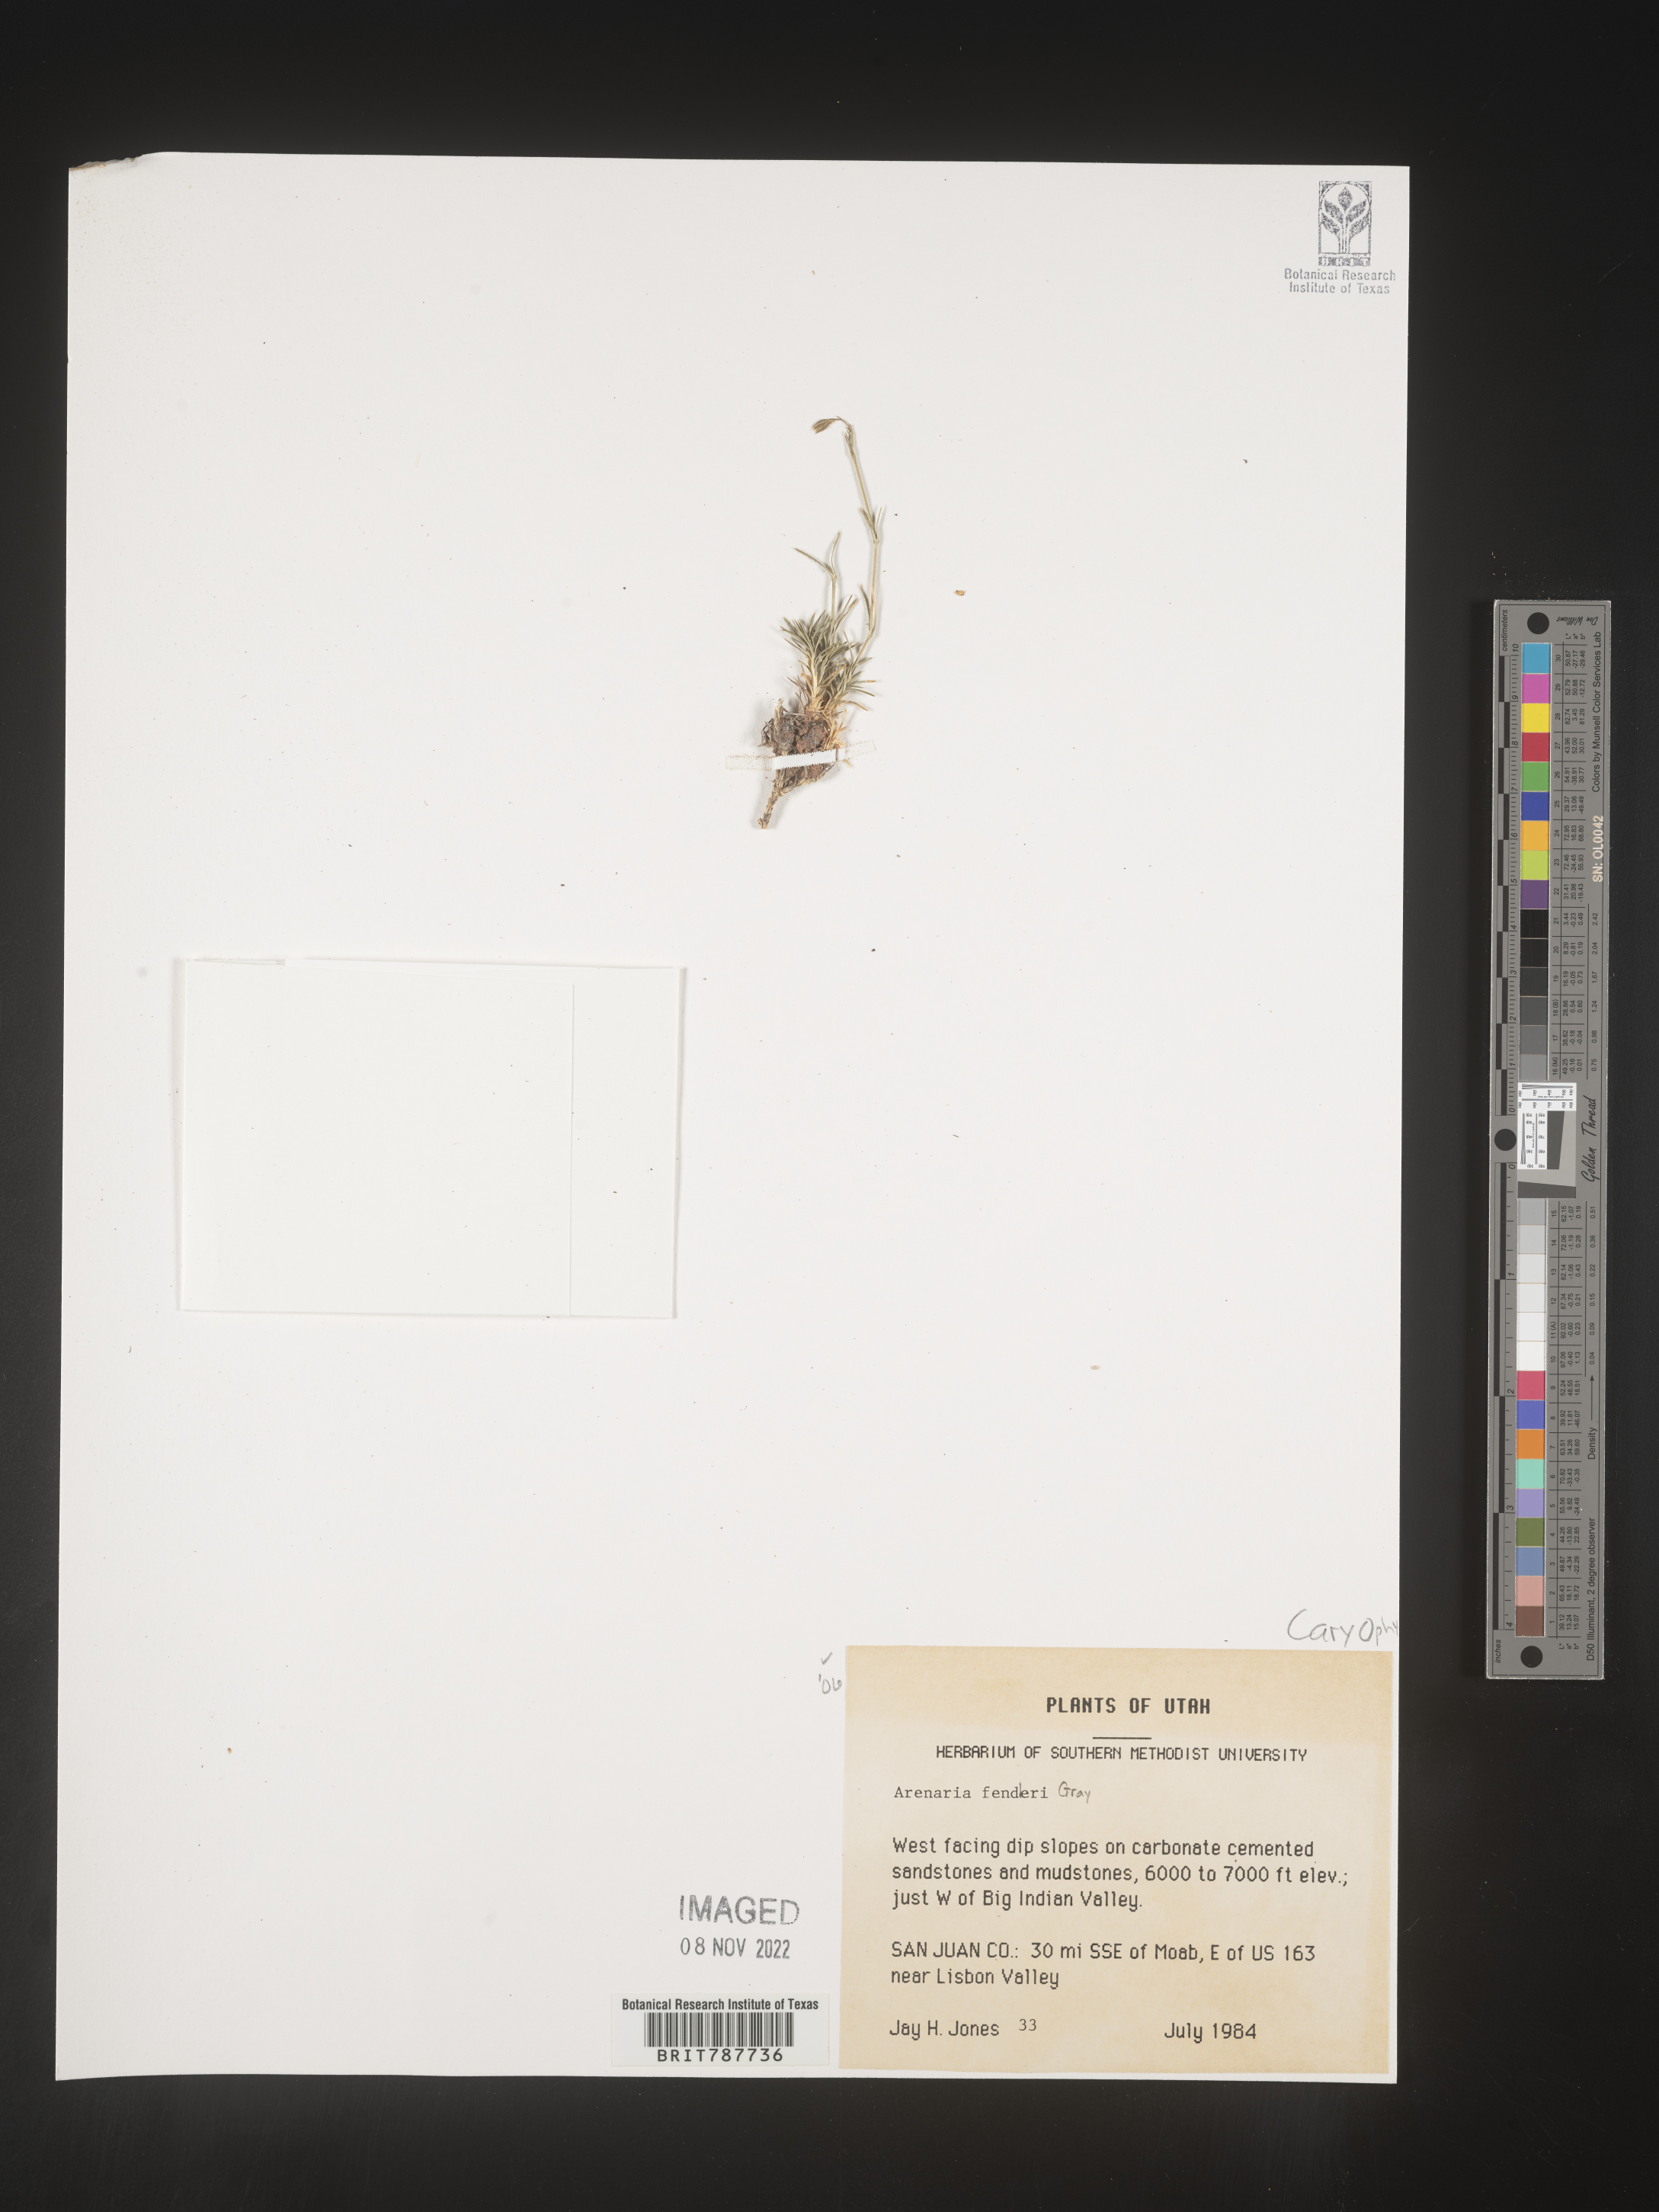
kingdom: Plantae
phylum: Tracheophyta
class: Magnoliopsida
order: Caryophyllales
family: Caryophyllaceae
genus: Arenaria
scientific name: Arenaria
